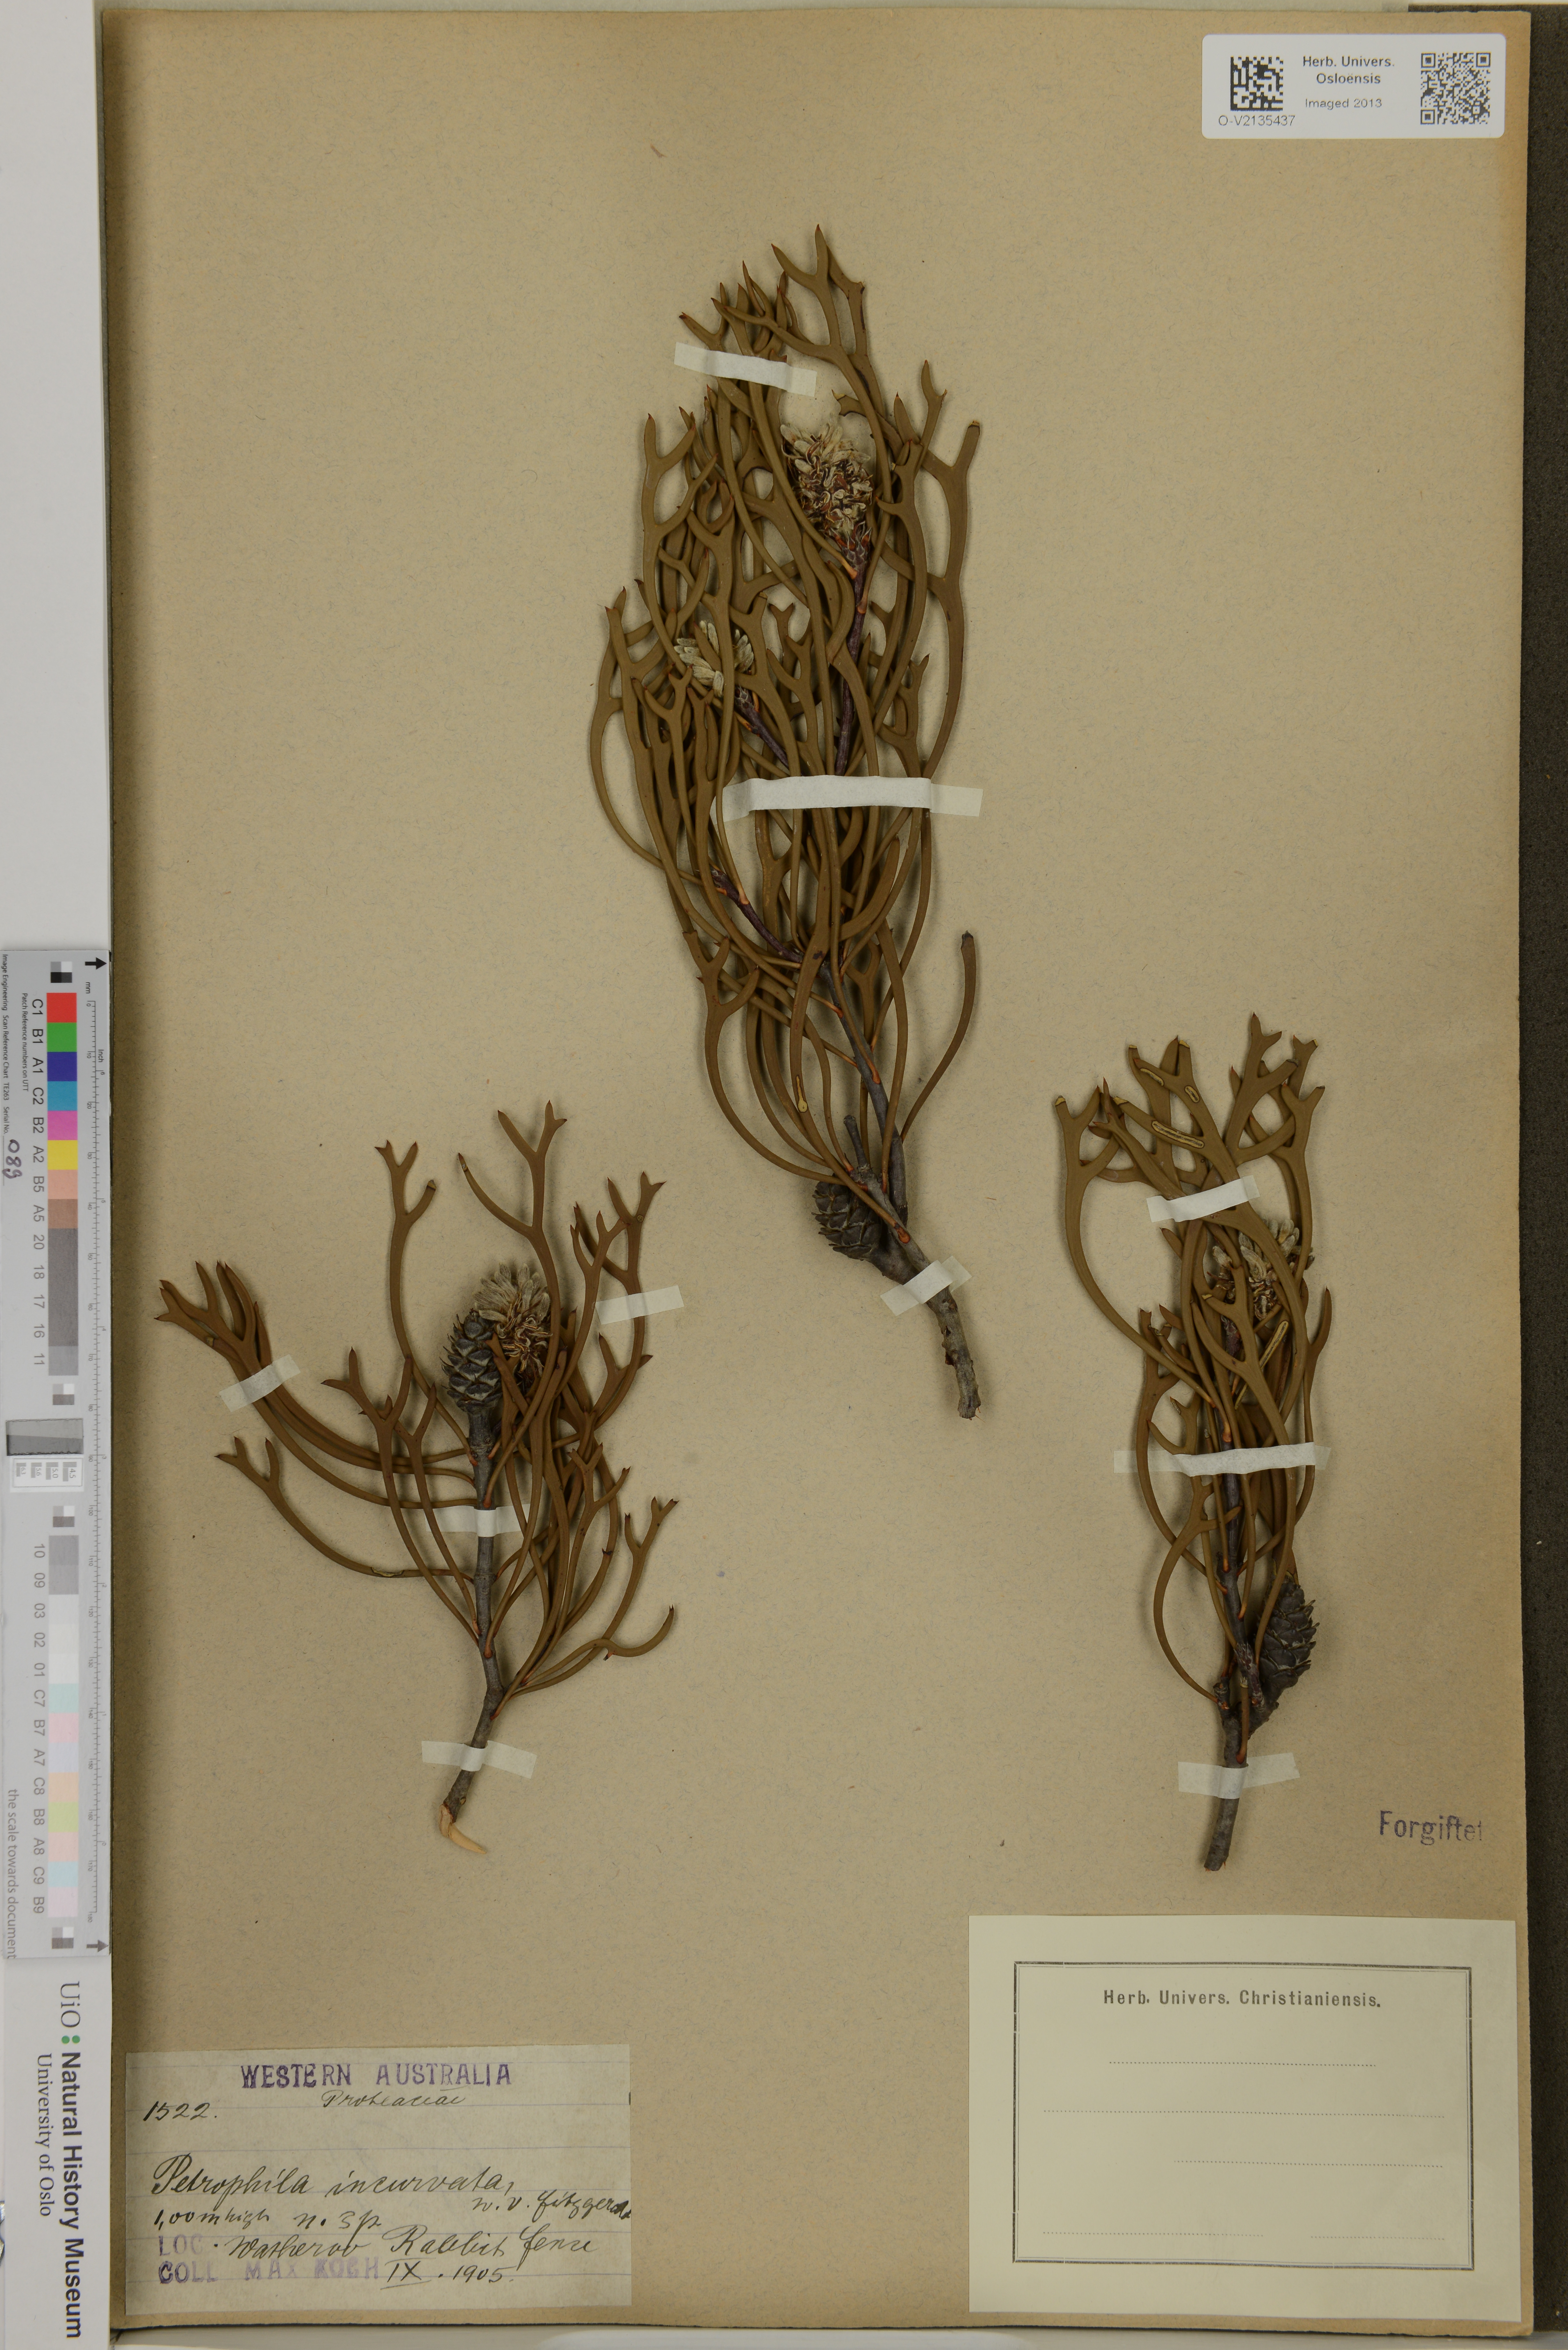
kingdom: Plantae
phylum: Tracheophyta
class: Magnoliopsida
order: Proteales
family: Proteaceae
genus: Petrophile
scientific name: Petrophile incurvata
